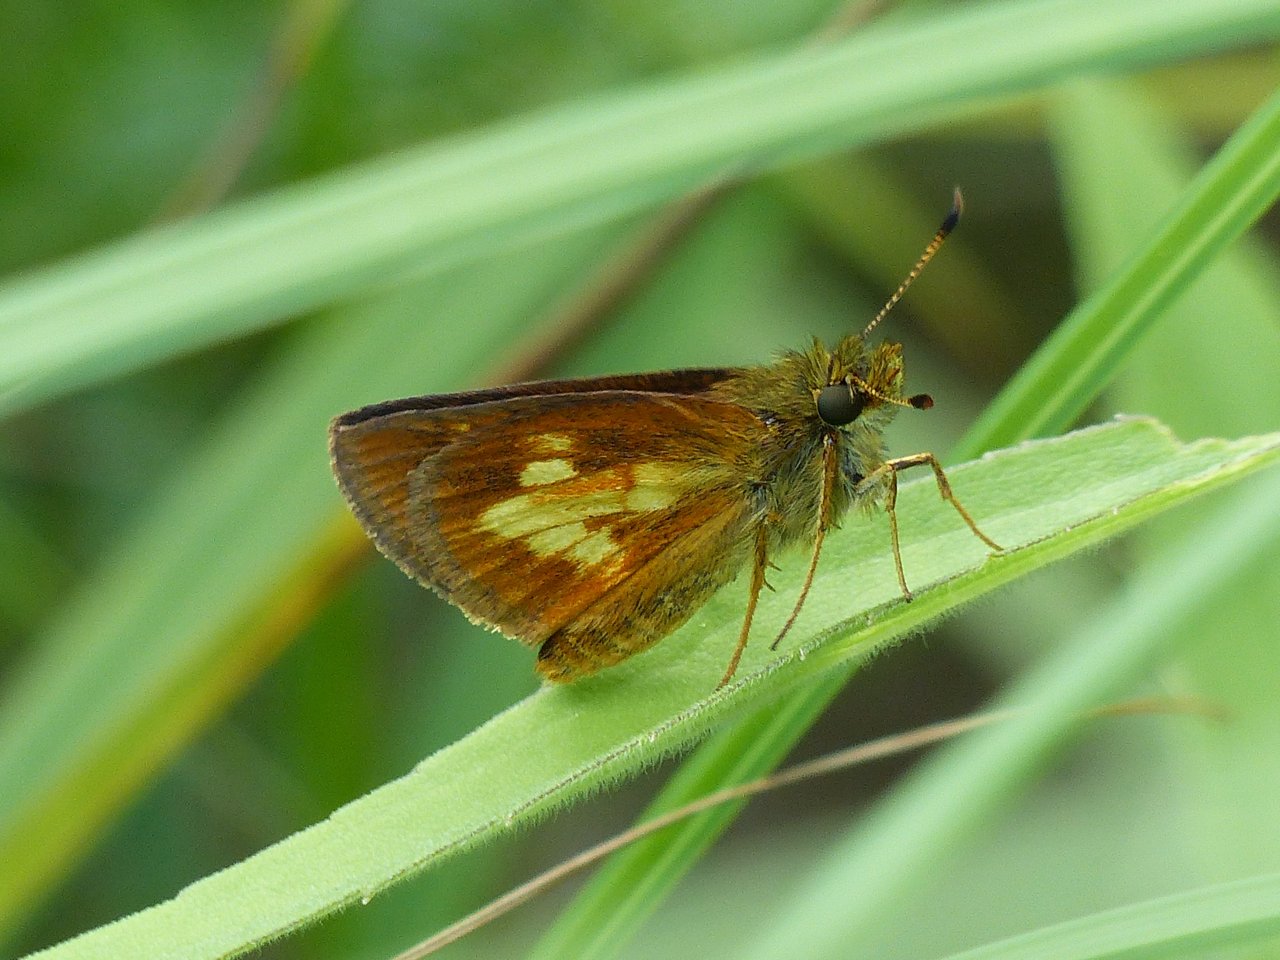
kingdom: Animalia
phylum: Arthropoda
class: Insecta
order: Lepidoptera
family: Hesperiidae
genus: Poanes
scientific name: Poanes massasoit
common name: Mulberry Wing
